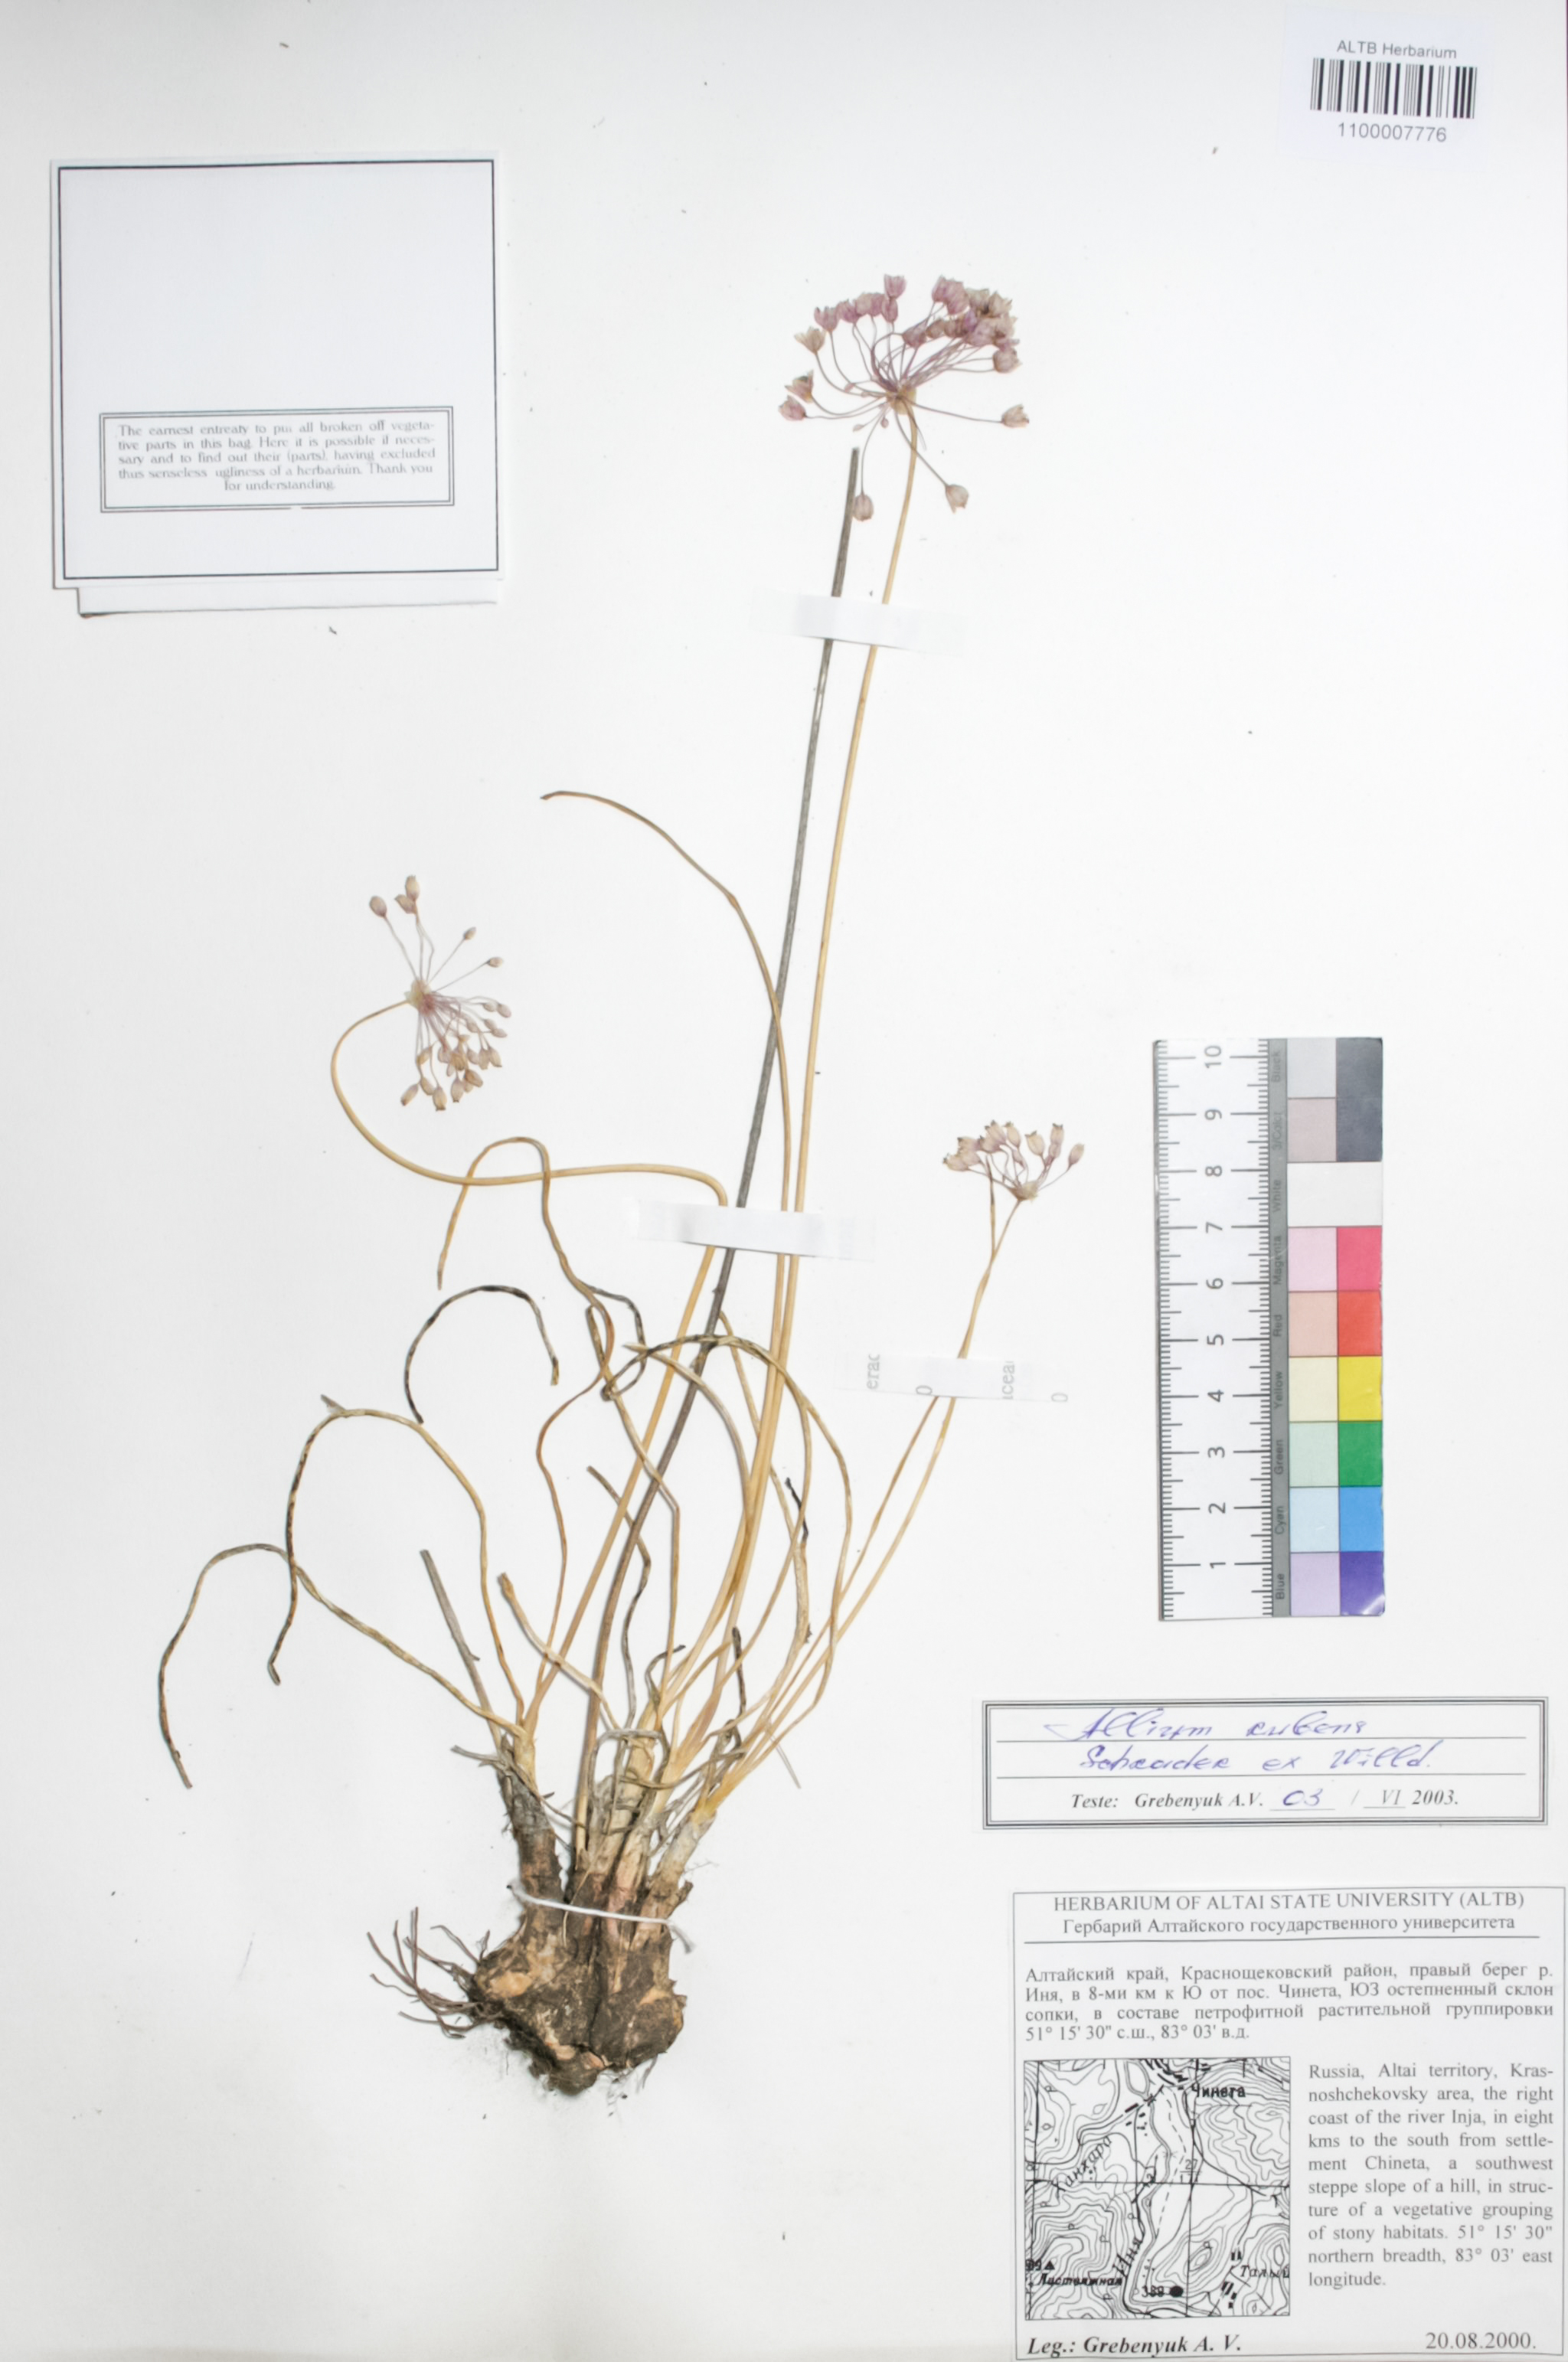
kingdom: Plantae
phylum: Tracheophyta
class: Liliopsida
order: Asparagales
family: Amaryllidaceae
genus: Allium
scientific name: Allium rubens
